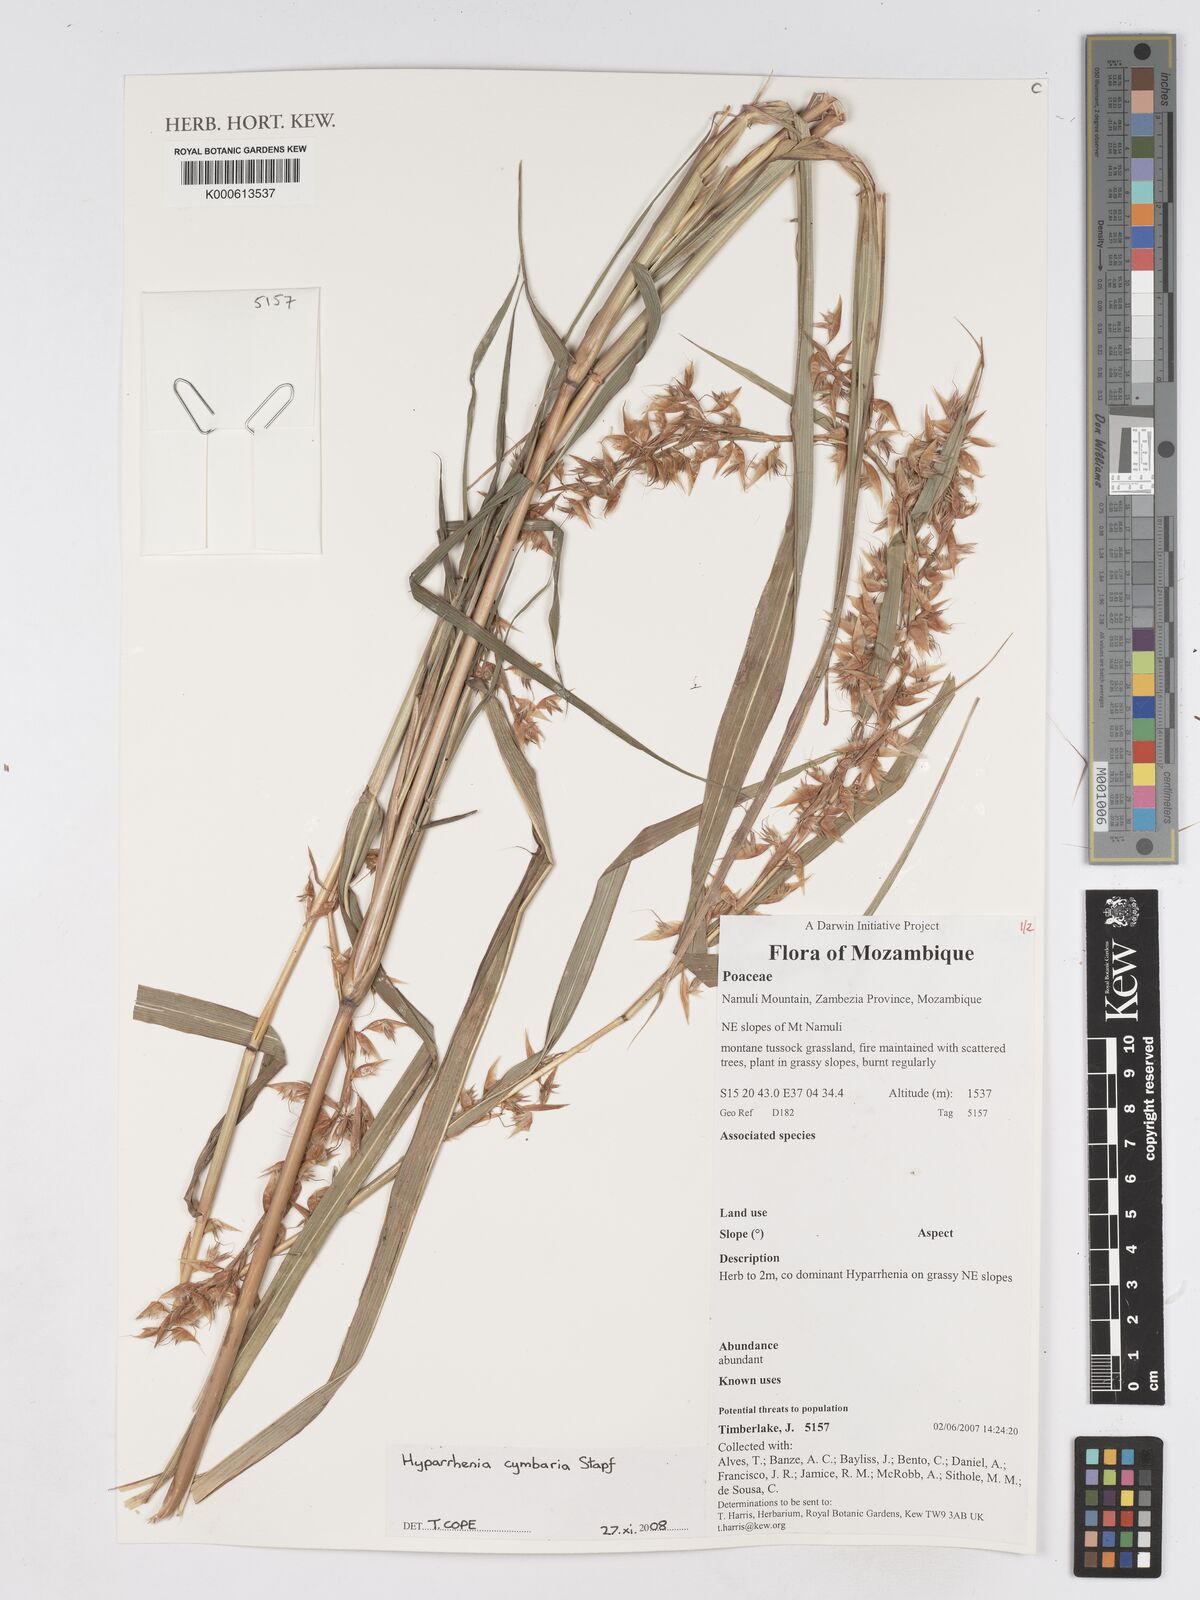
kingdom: Plantae
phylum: Tracheophyta
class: Liliopsida
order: Poales
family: Poaceae
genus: Hyparrhenia
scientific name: Hyparrhenia cymbaria
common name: Boat thatching grass
